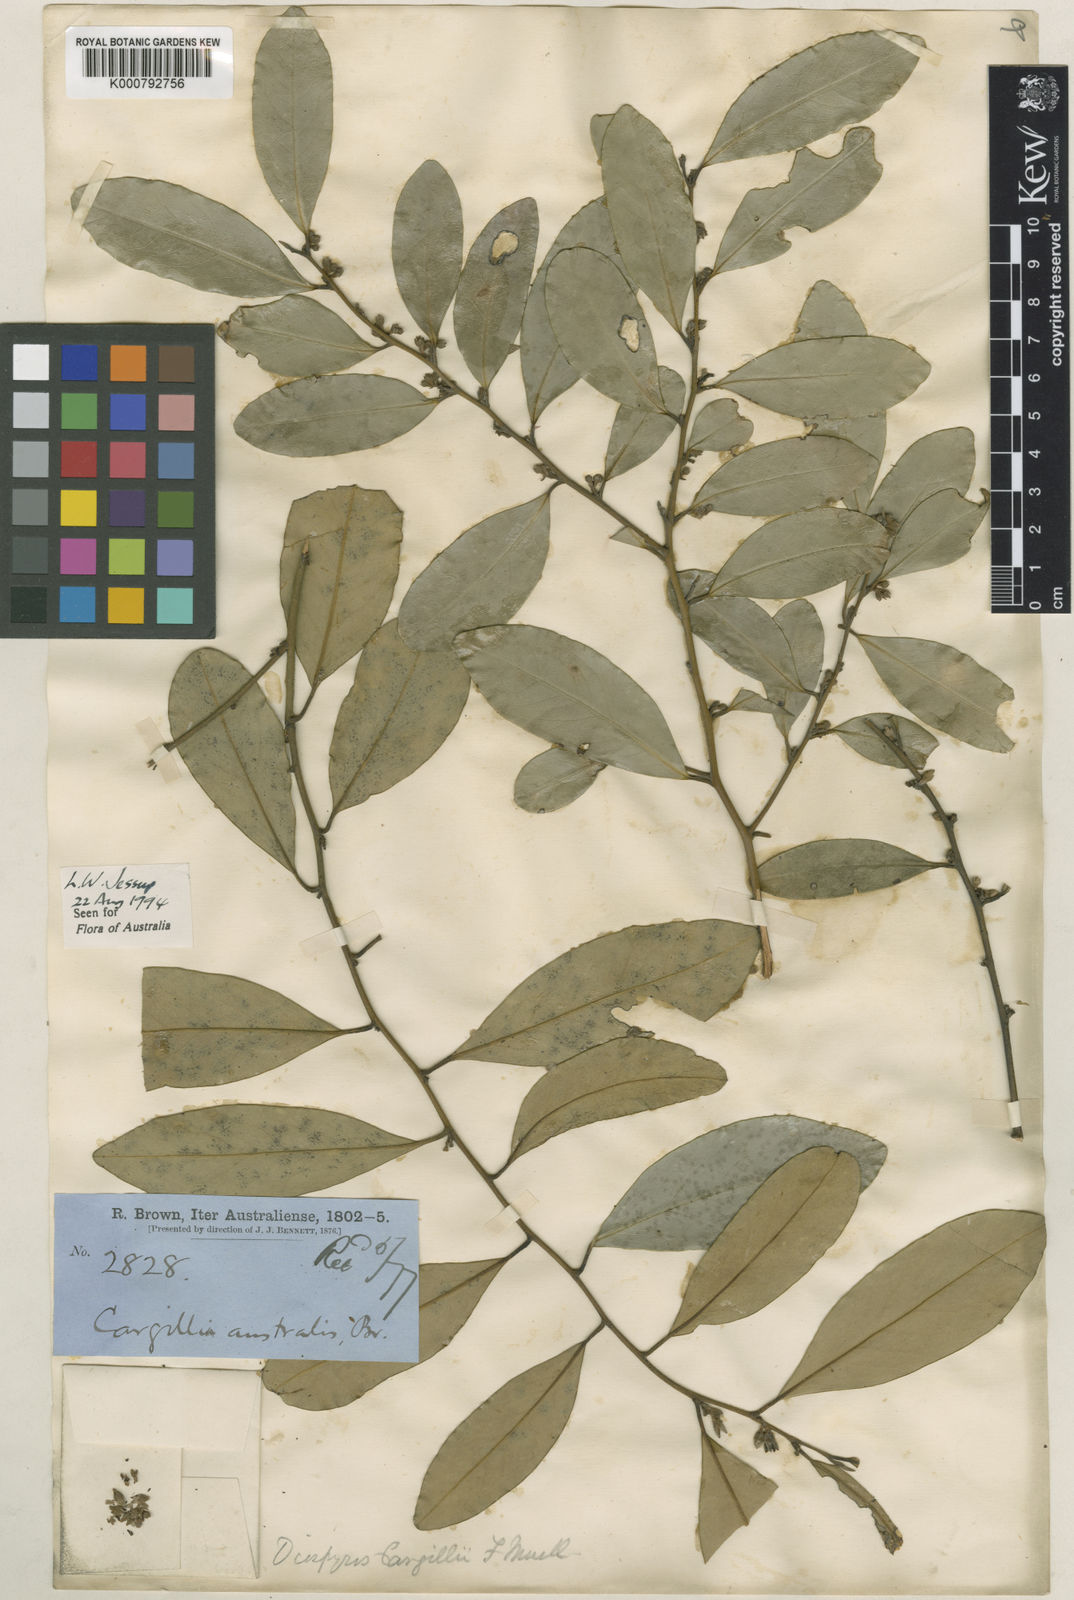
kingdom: Plantae
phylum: Tracheophyta
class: Magnoliopsida
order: Ericales
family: Ebenaceae
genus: Diospyros
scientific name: Diospyros australis
